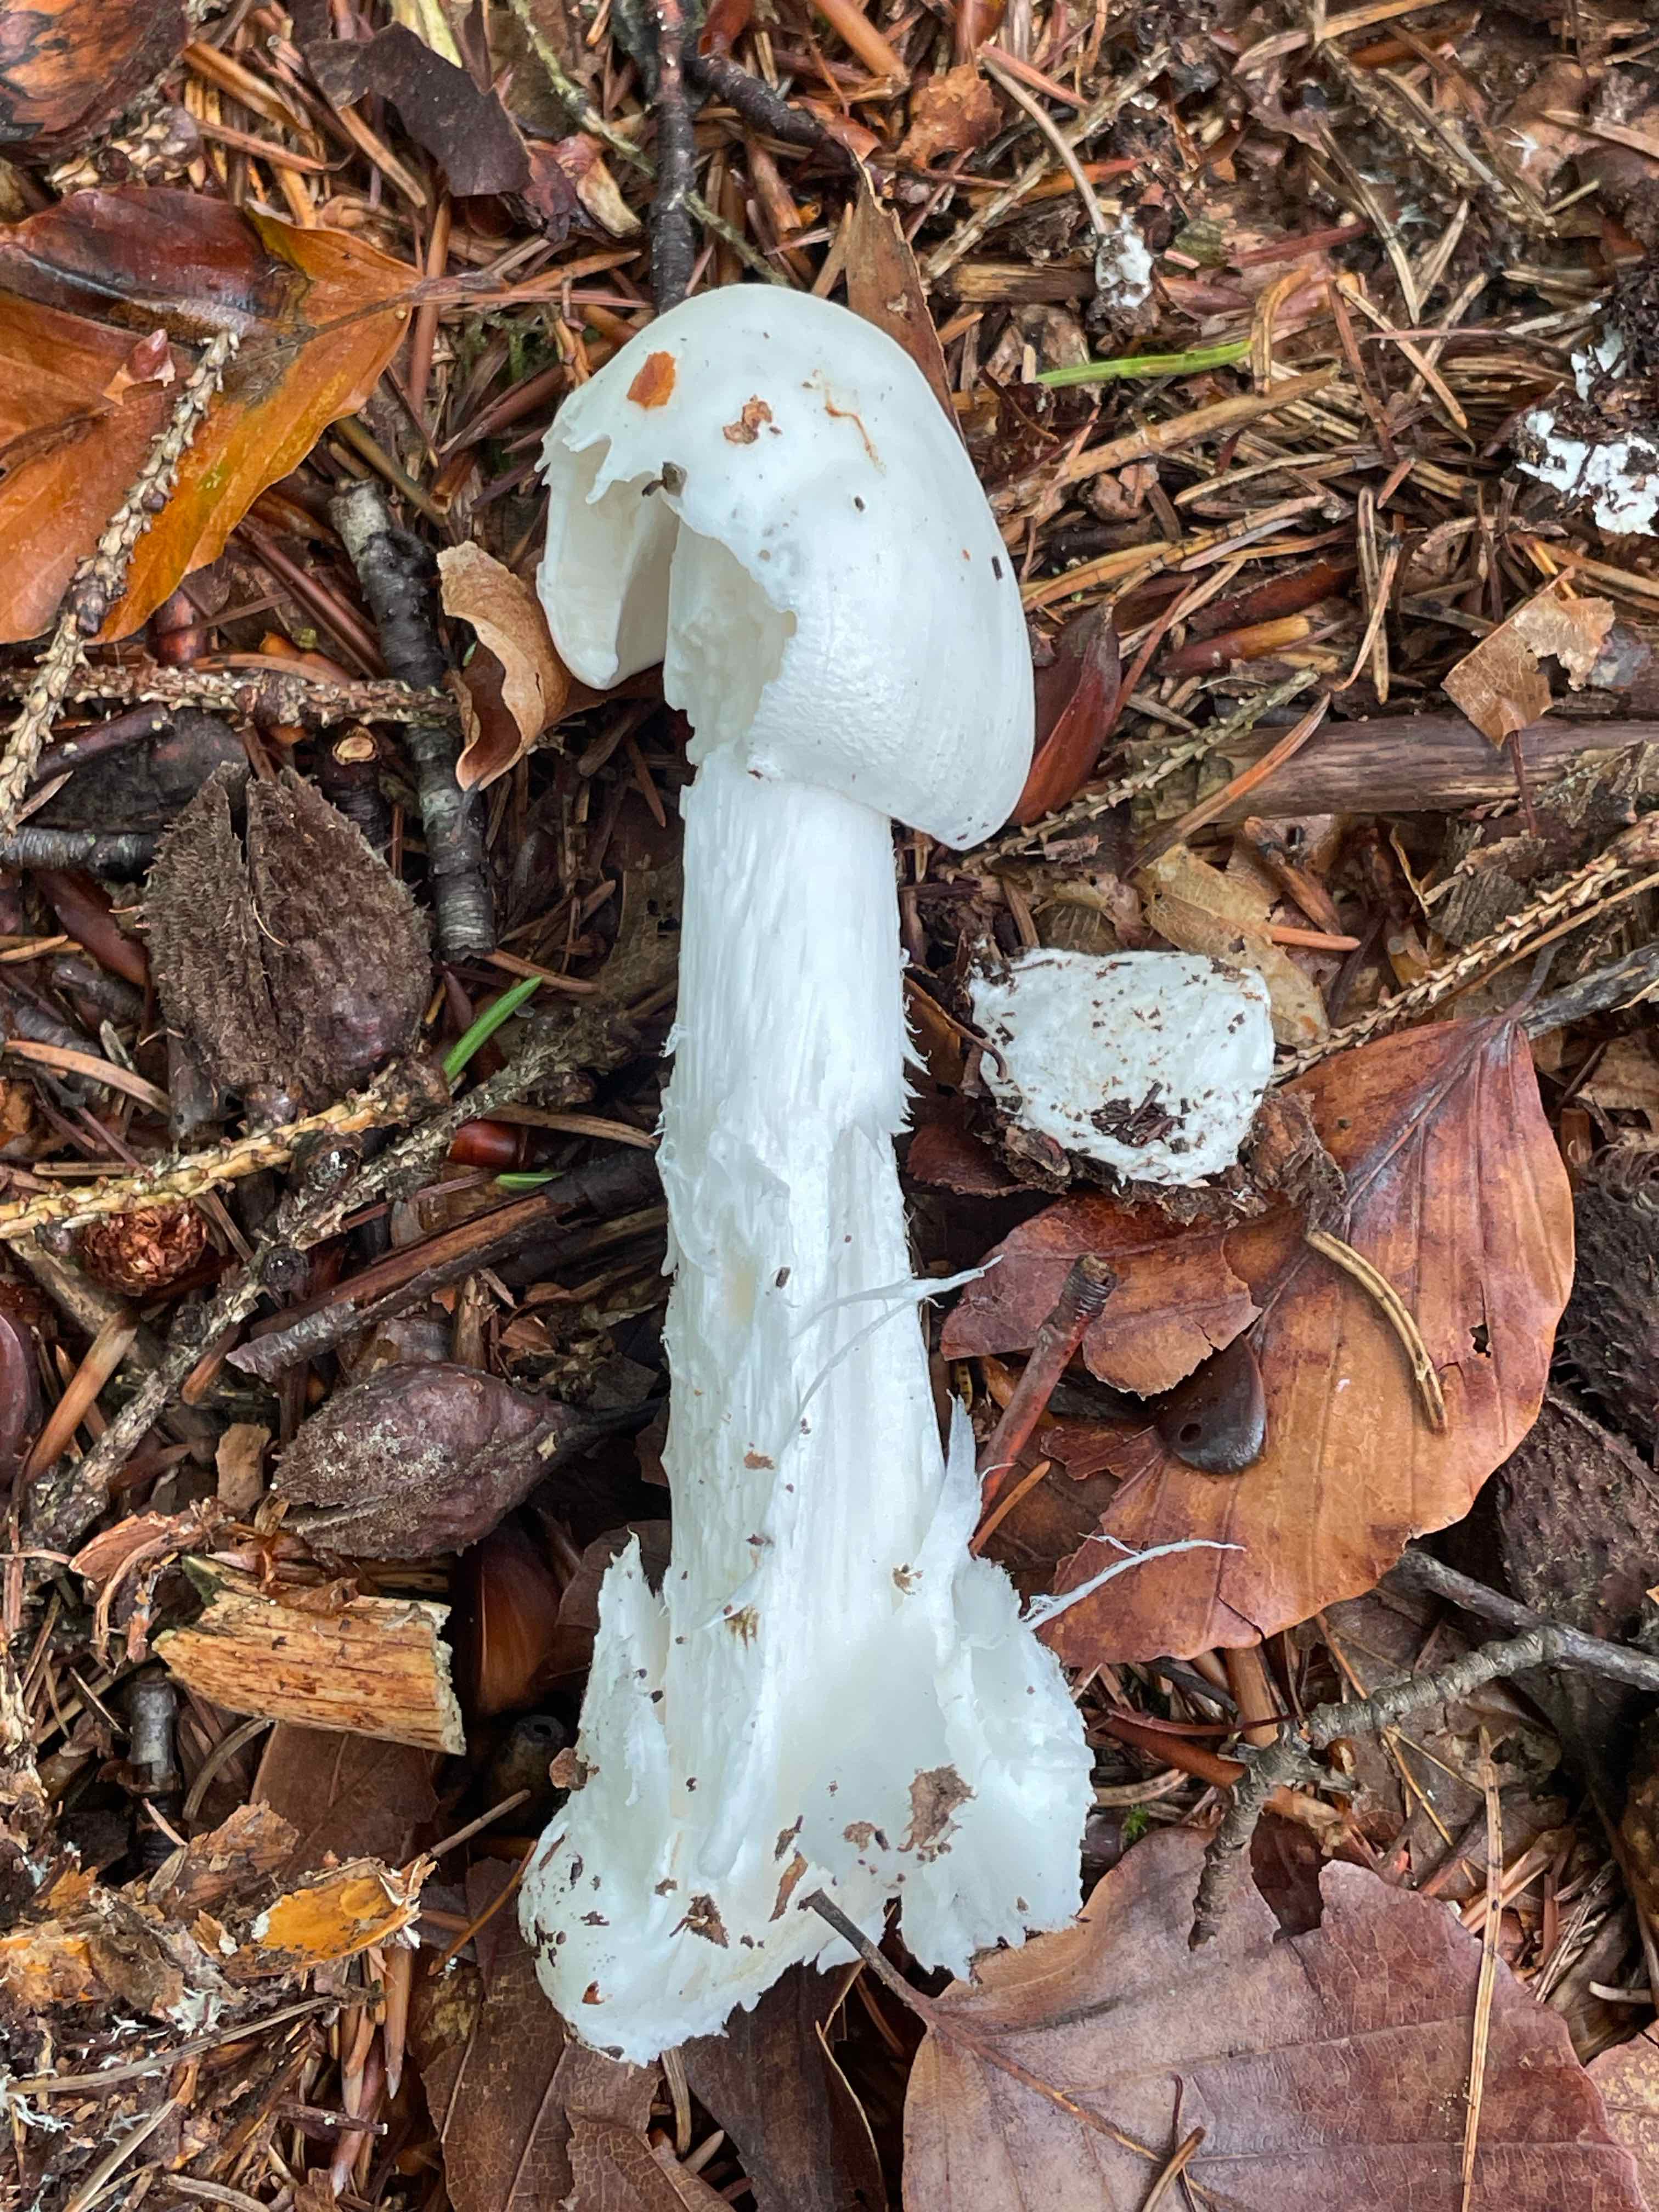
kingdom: Fungi
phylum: Basidiomycota
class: Agaricomycetes
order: Agaricales
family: Amanitaceae
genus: Amanita
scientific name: Amanita virosa
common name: snehvid fluesvamp
